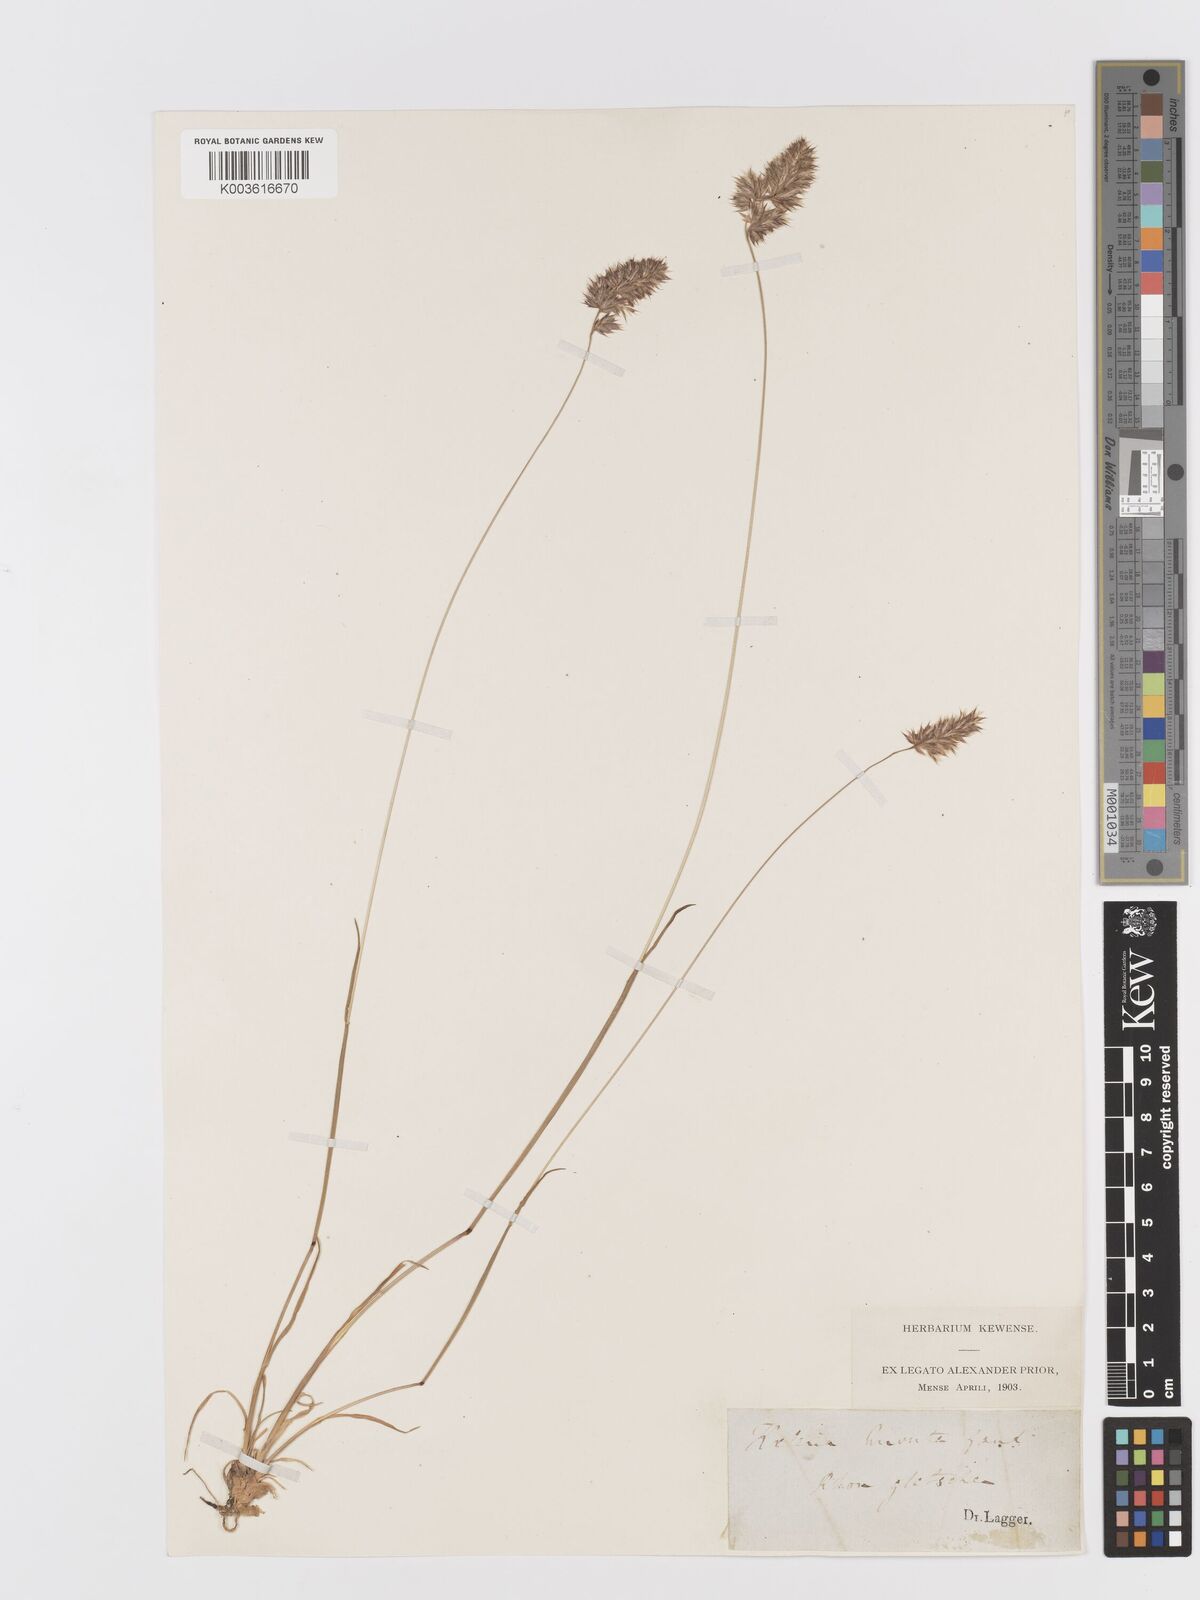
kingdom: Plantae
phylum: Tracheophyta
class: Liliopsida
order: Poales
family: Poaceae
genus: Koeleria
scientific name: Koeleria hirsuta
